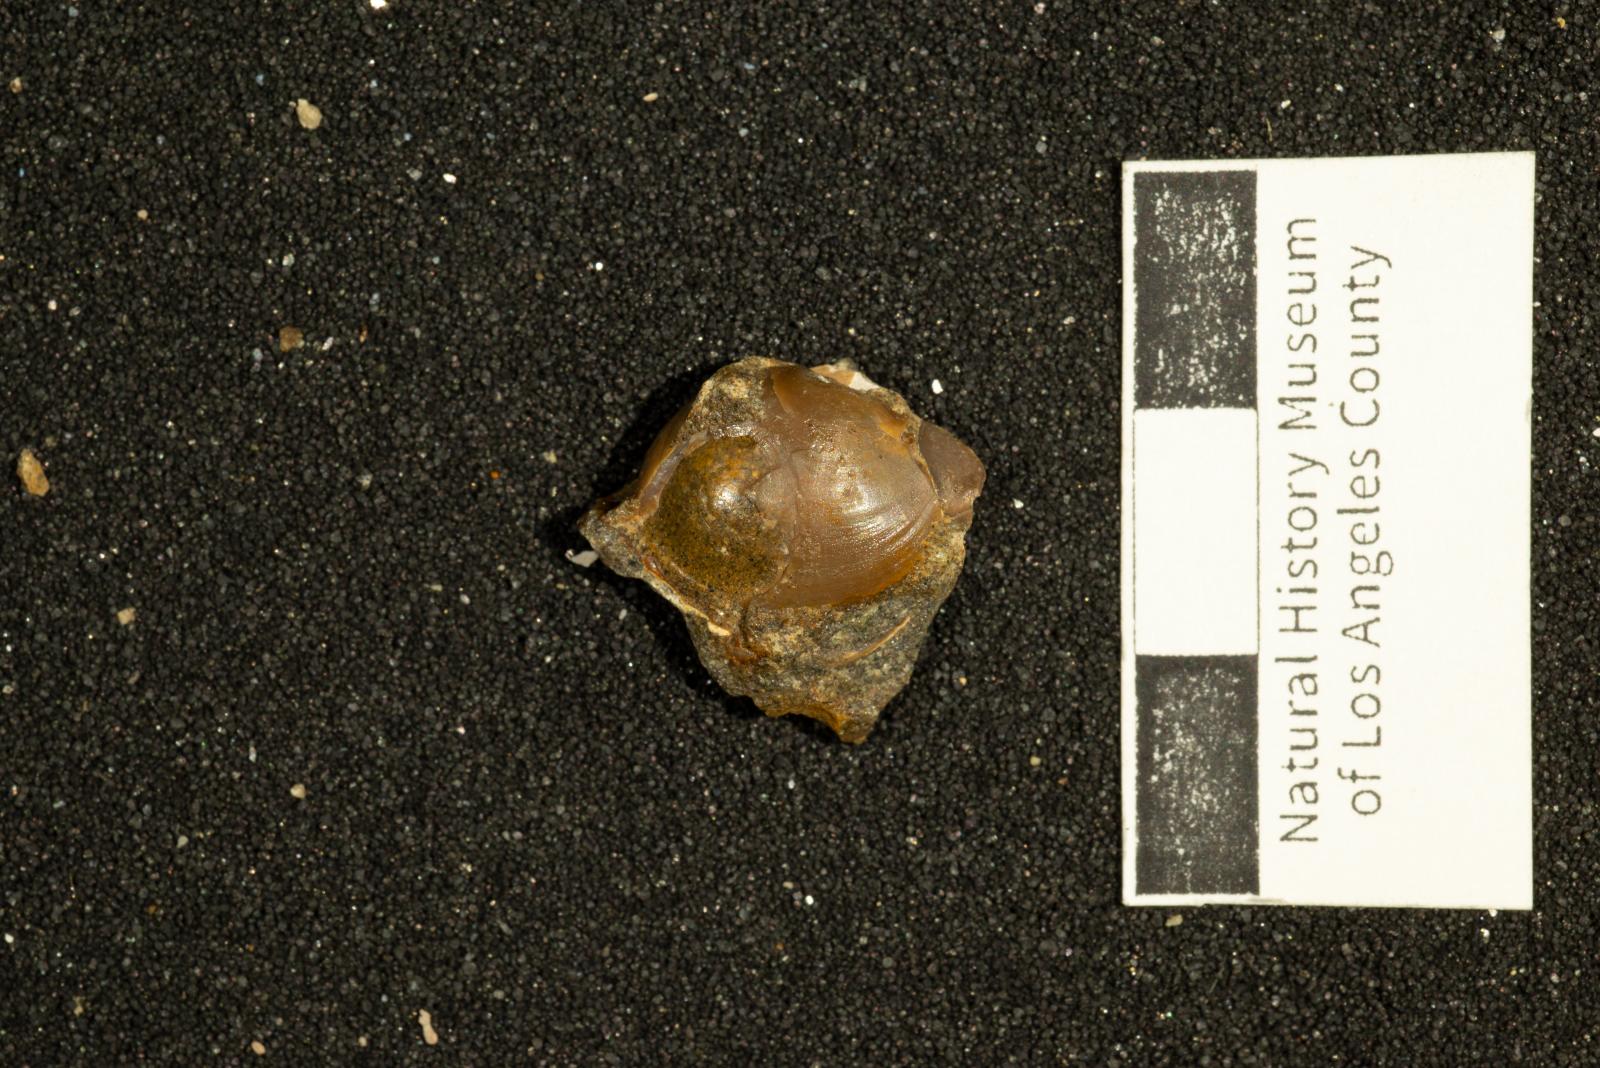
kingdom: Animalia
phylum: Mollusca
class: Bivalvia
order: Cardiida
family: Tancrediidae
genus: Meekia
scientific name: Meekia louella
